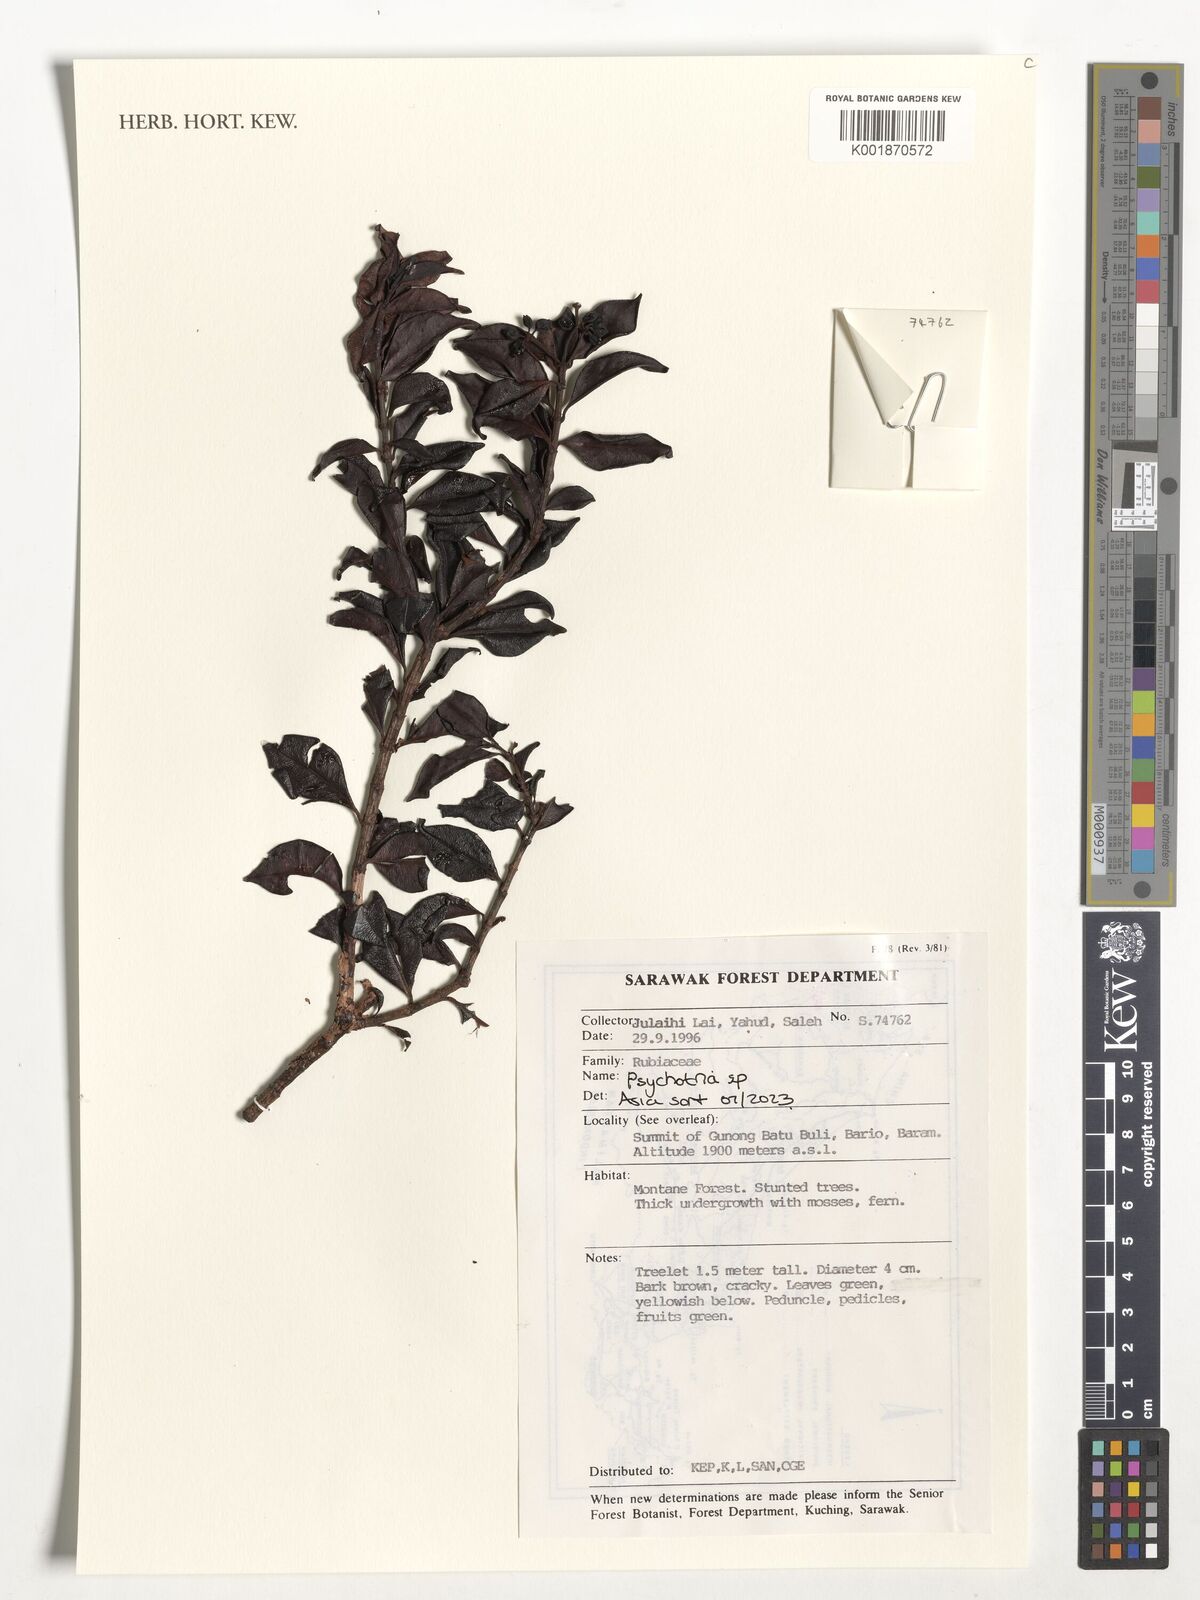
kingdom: Plantae
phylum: Tracheophyta
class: Magnoliopsida
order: Gentianales
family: Rubiaceae
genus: Psychotria
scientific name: Psychotria
